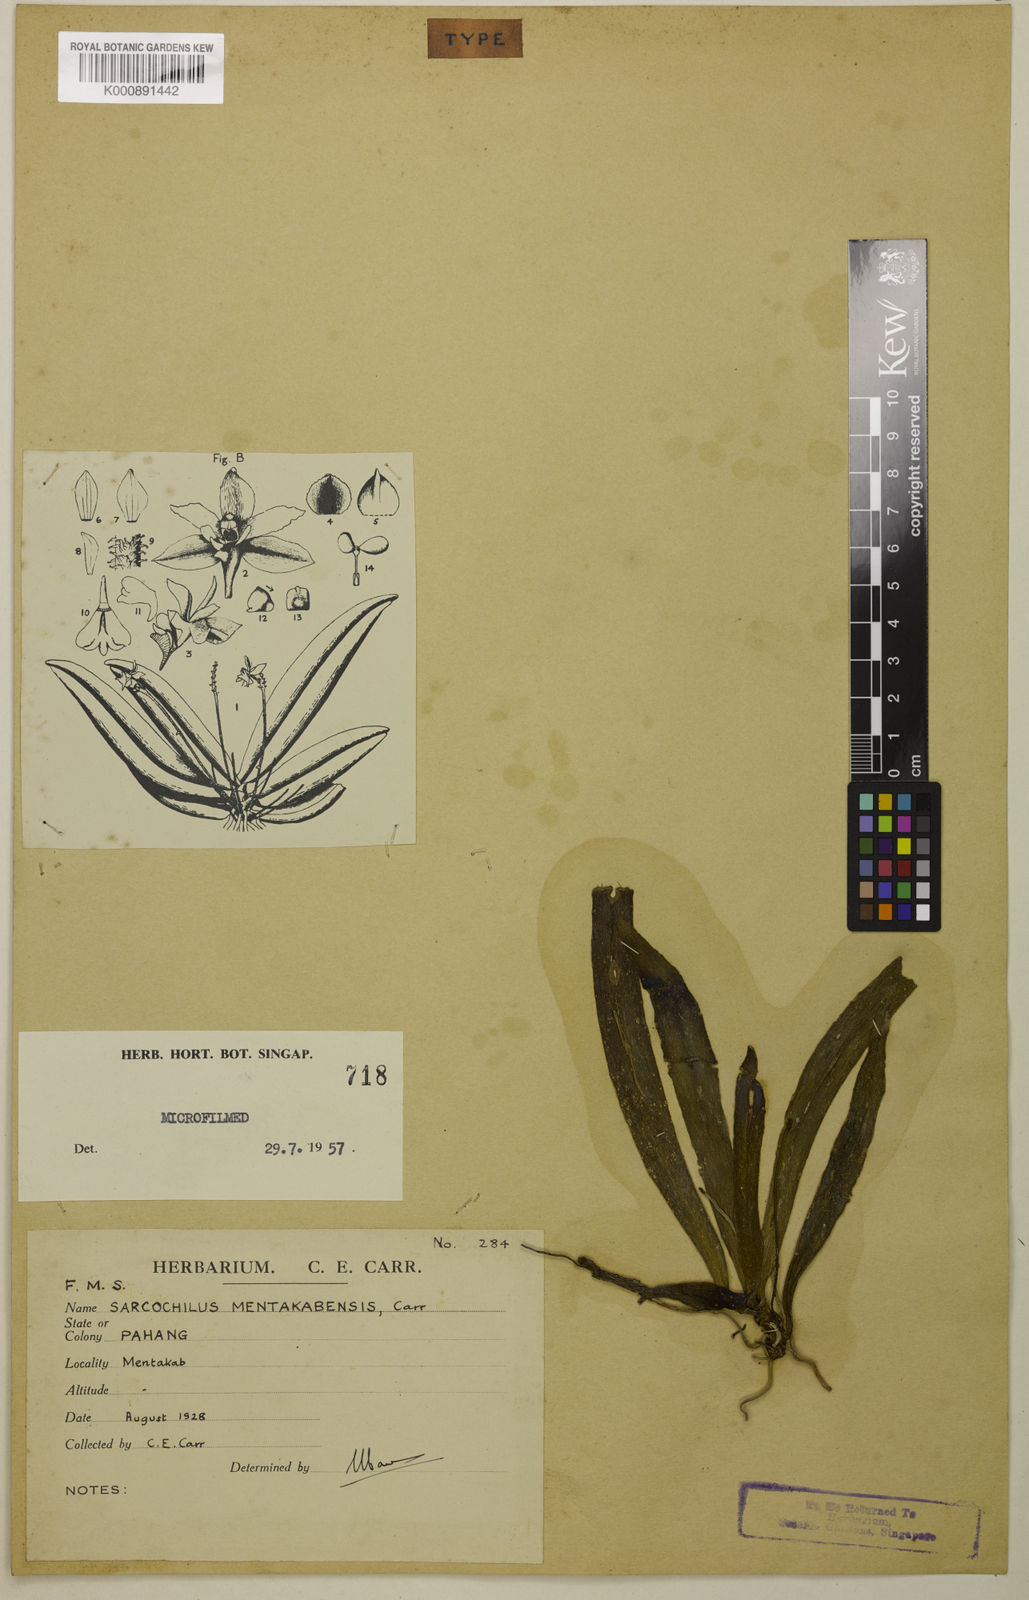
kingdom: Plantae
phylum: Tracheophyta
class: Liliopsida
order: Asparagales
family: Orchidaceae
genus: Grosourdya
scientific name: Grosourdya emarginata
